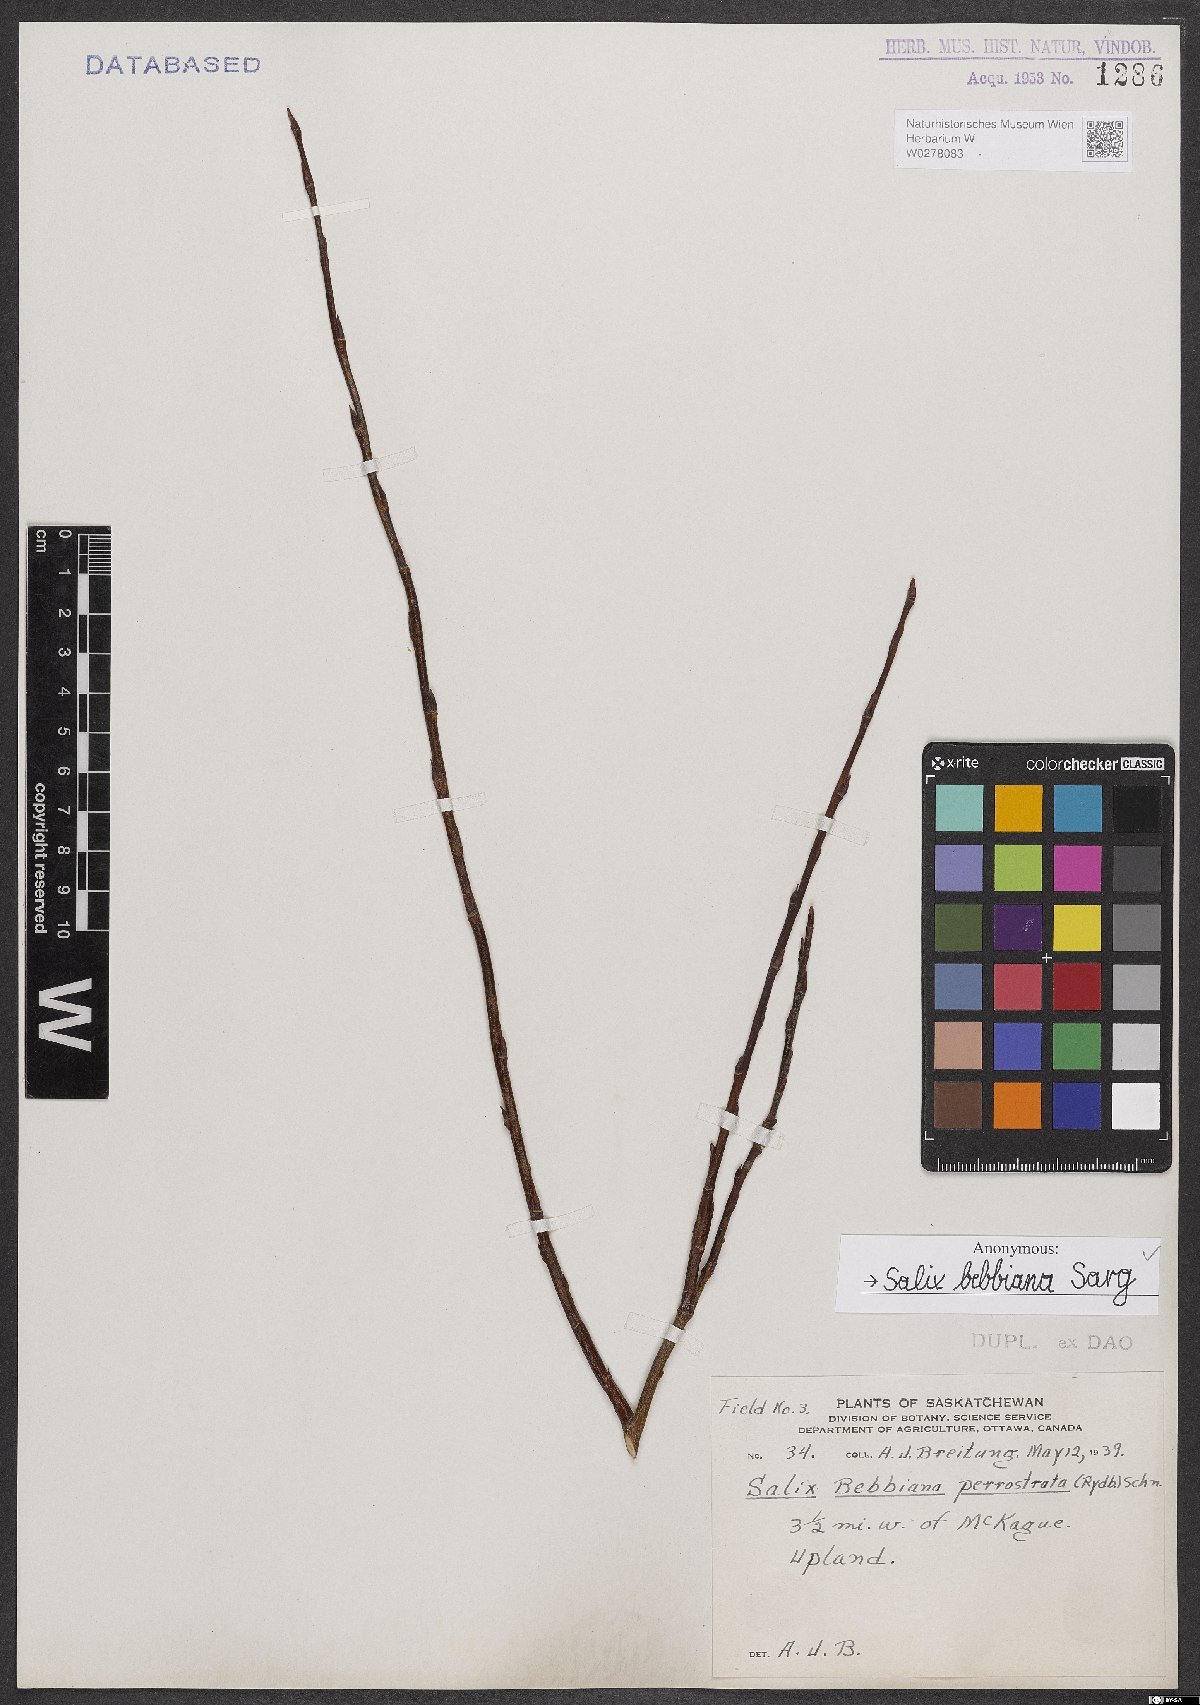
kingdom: Plantae
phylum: Tracheophyta
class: Magnoliopsida
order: Malpighiales
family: Salicaceae
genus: Salix
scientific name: Salix bebbiana
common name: Bebb's willow
